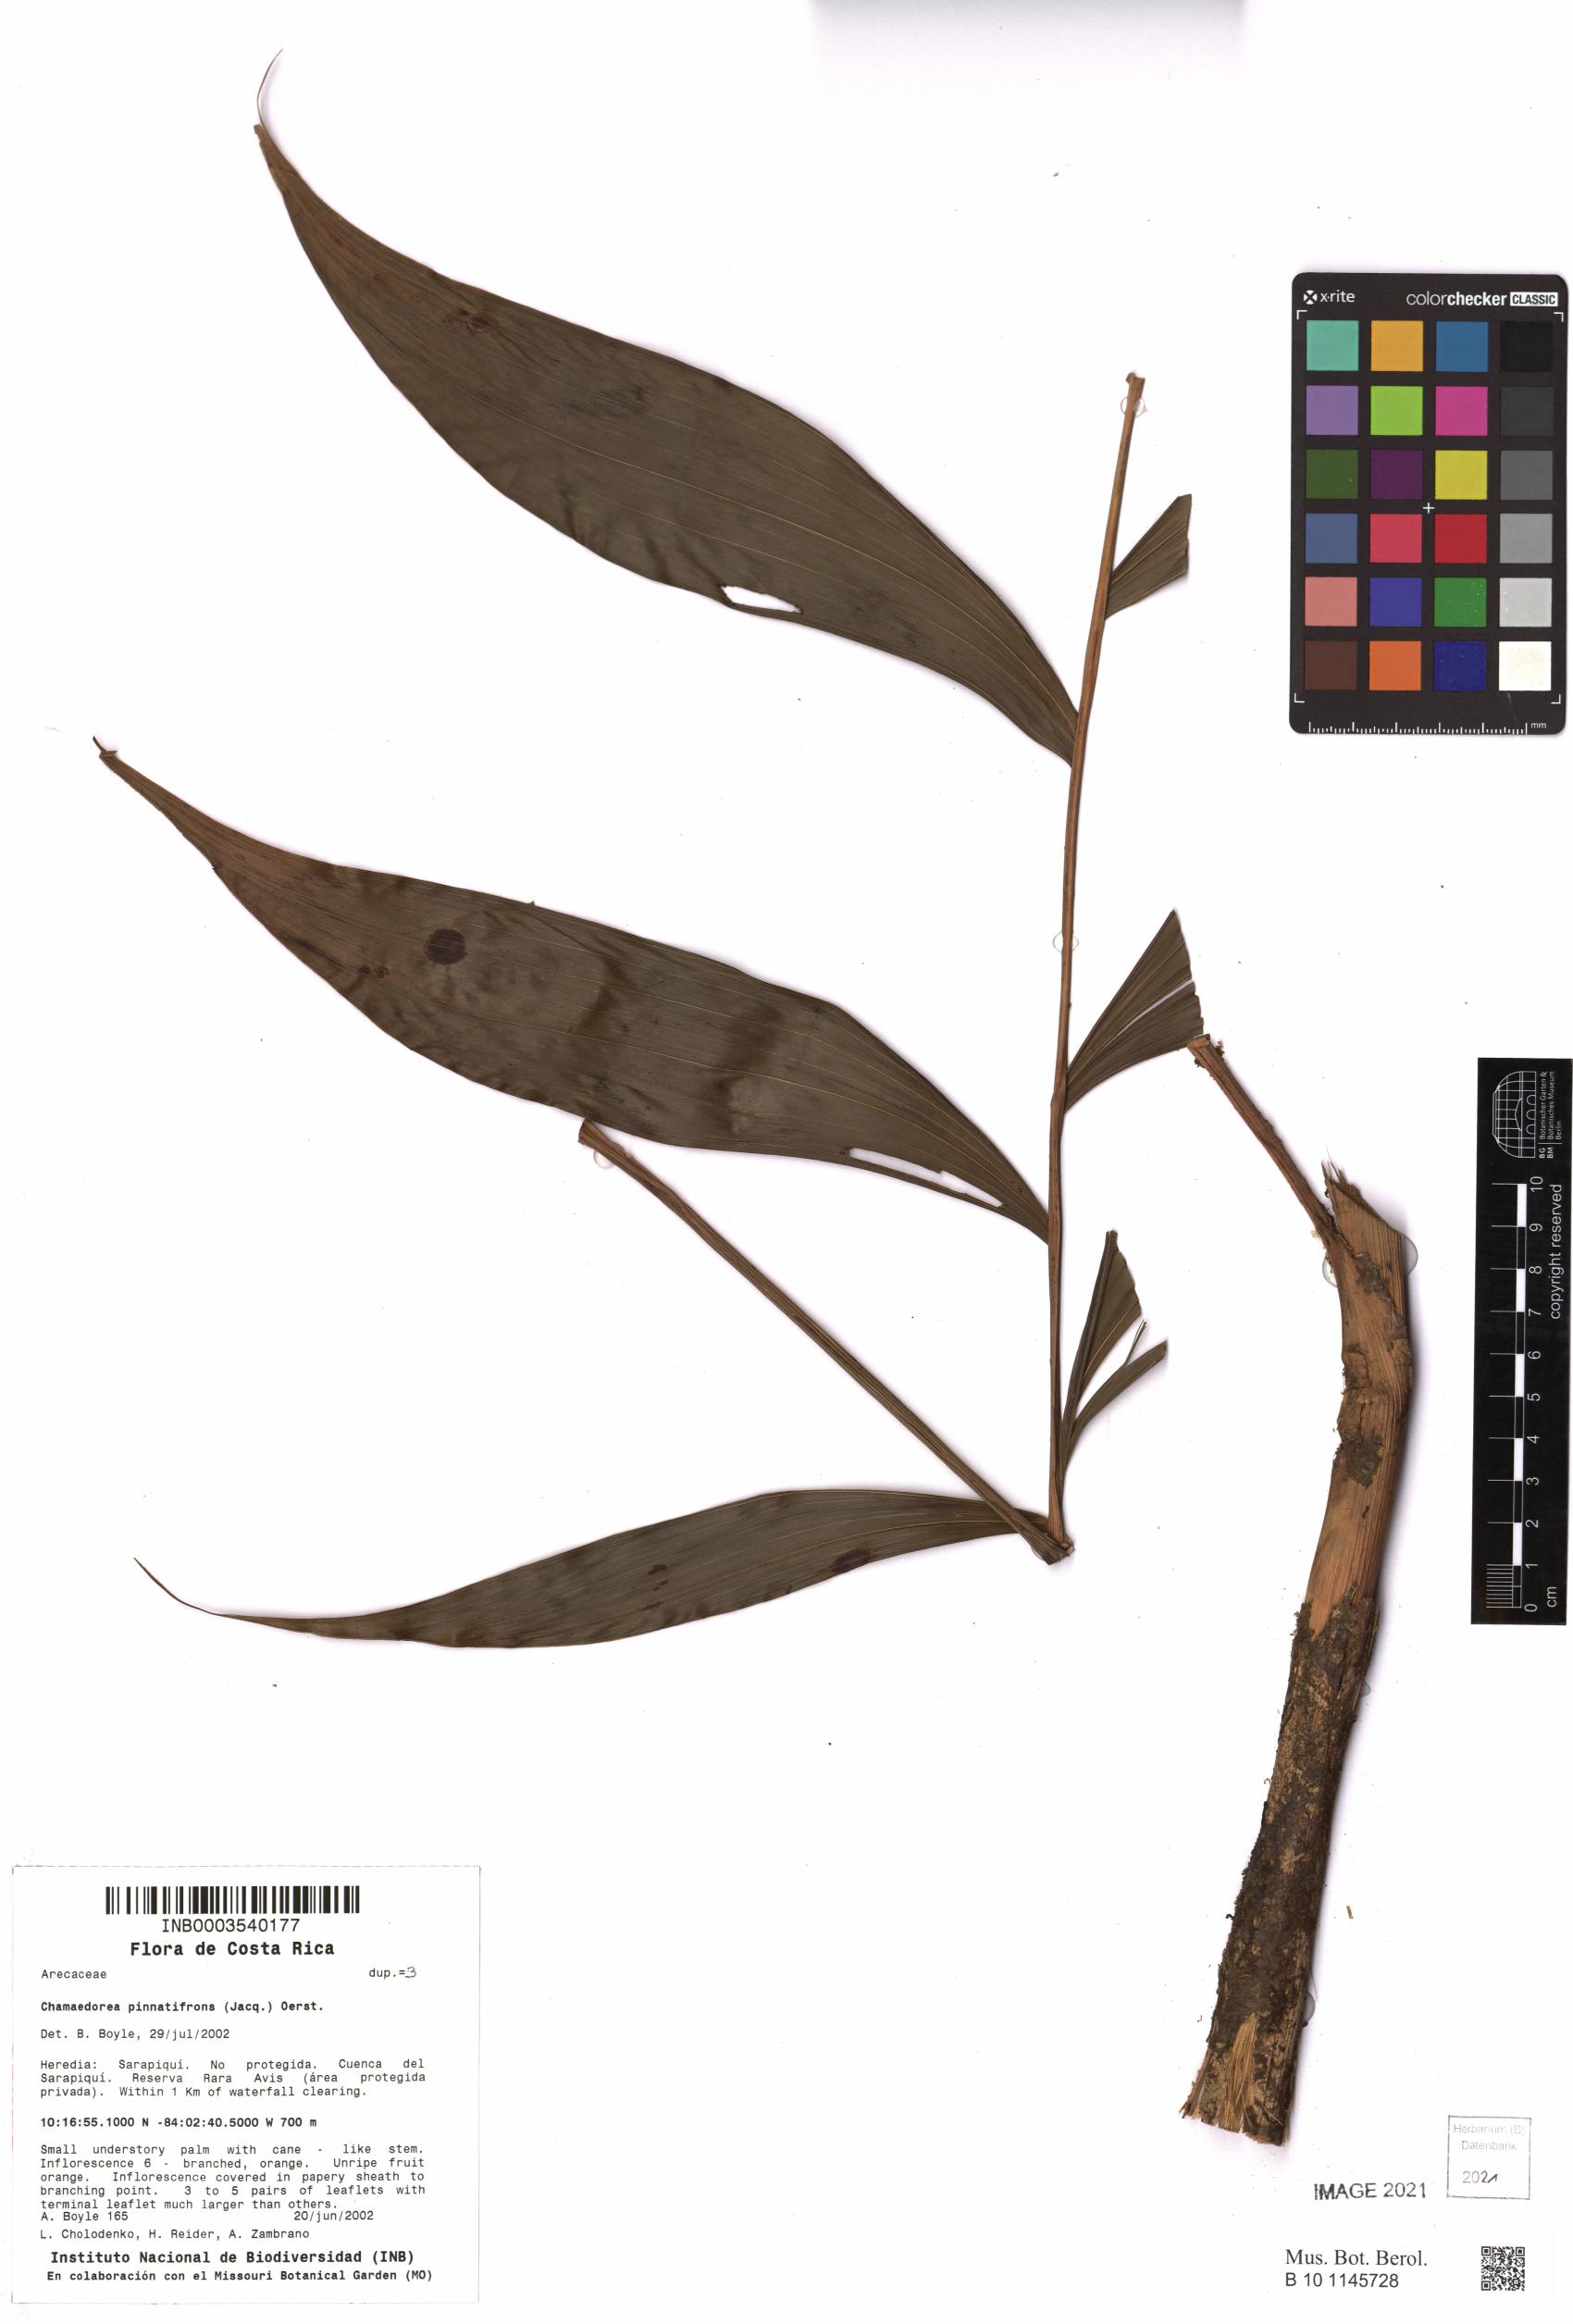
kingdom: Plantae
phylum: Tracheophyta
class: Liliopsida
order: Arecales
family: Arecaceae
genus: Chamaedorea
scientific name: Chamaedorea pinnatifrons
